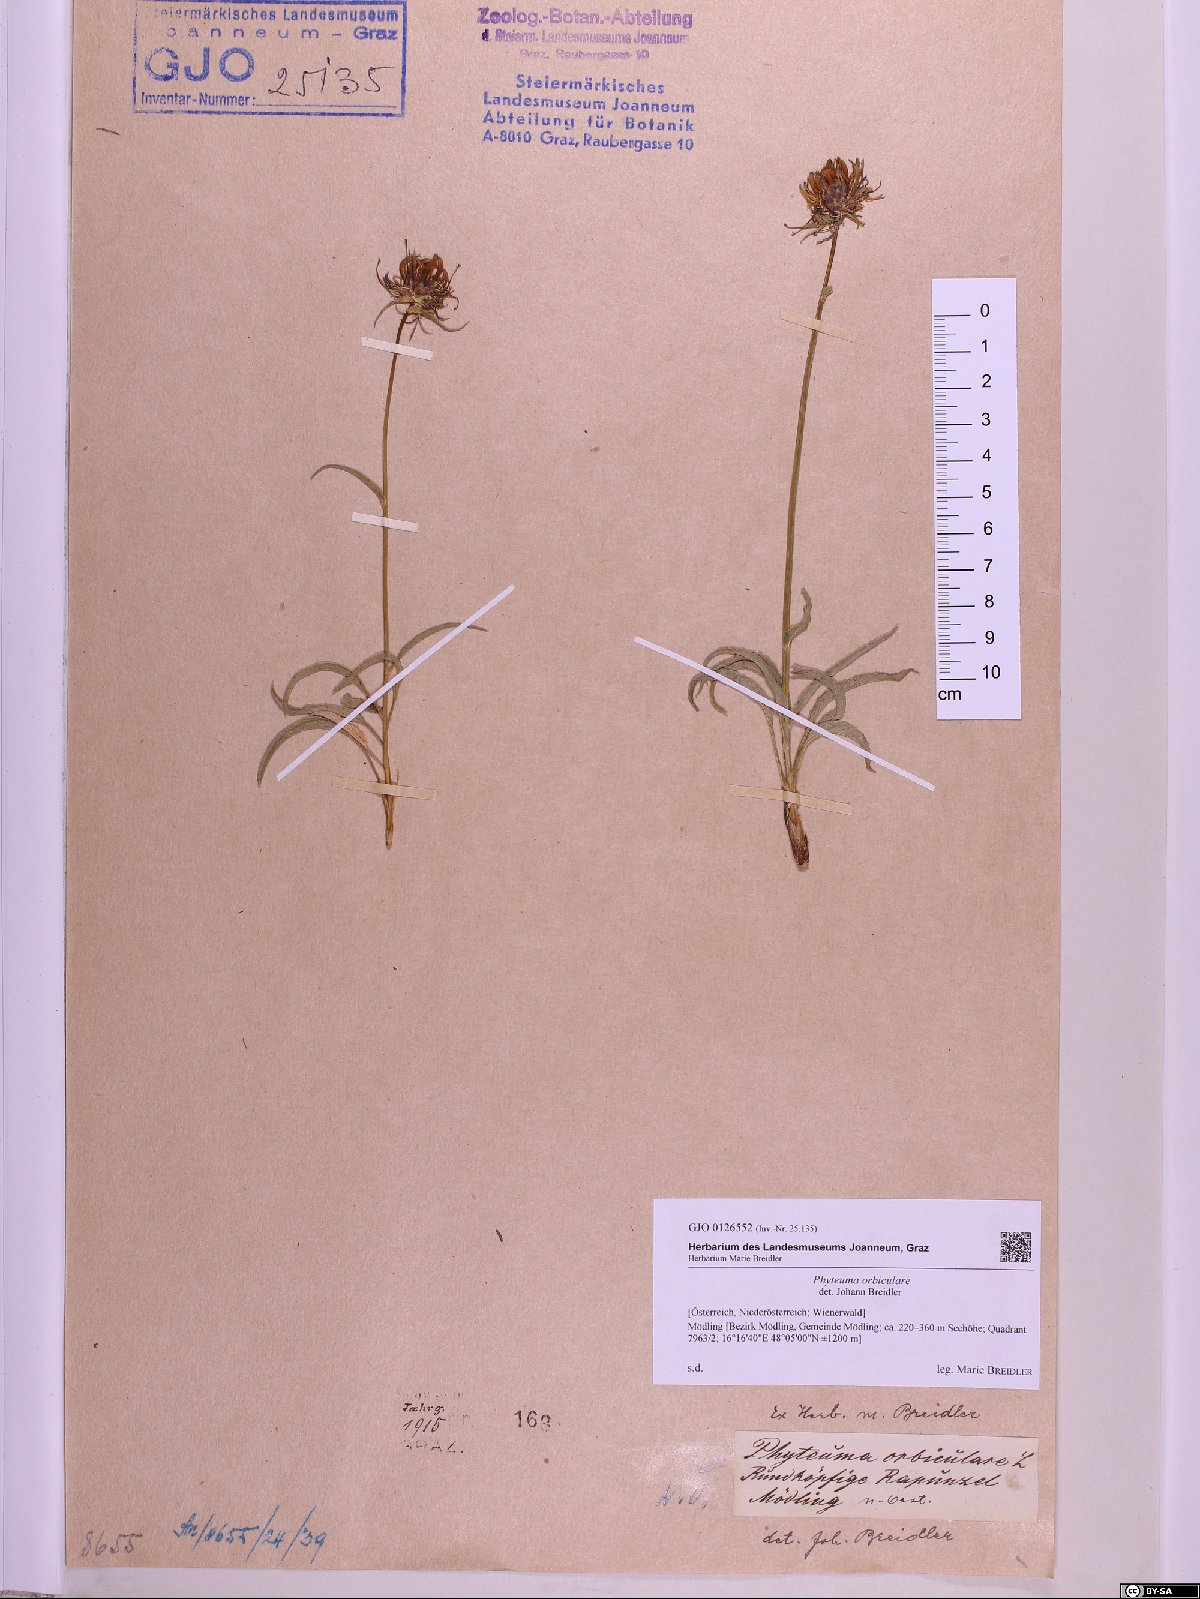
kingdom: Plantae
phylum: Tracheophyta
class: Magnoliopsida
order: Asterales
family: Campanulaceae
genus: Phyteuma
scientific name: Phyteuma orbiculare
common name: Round-headed rampion
